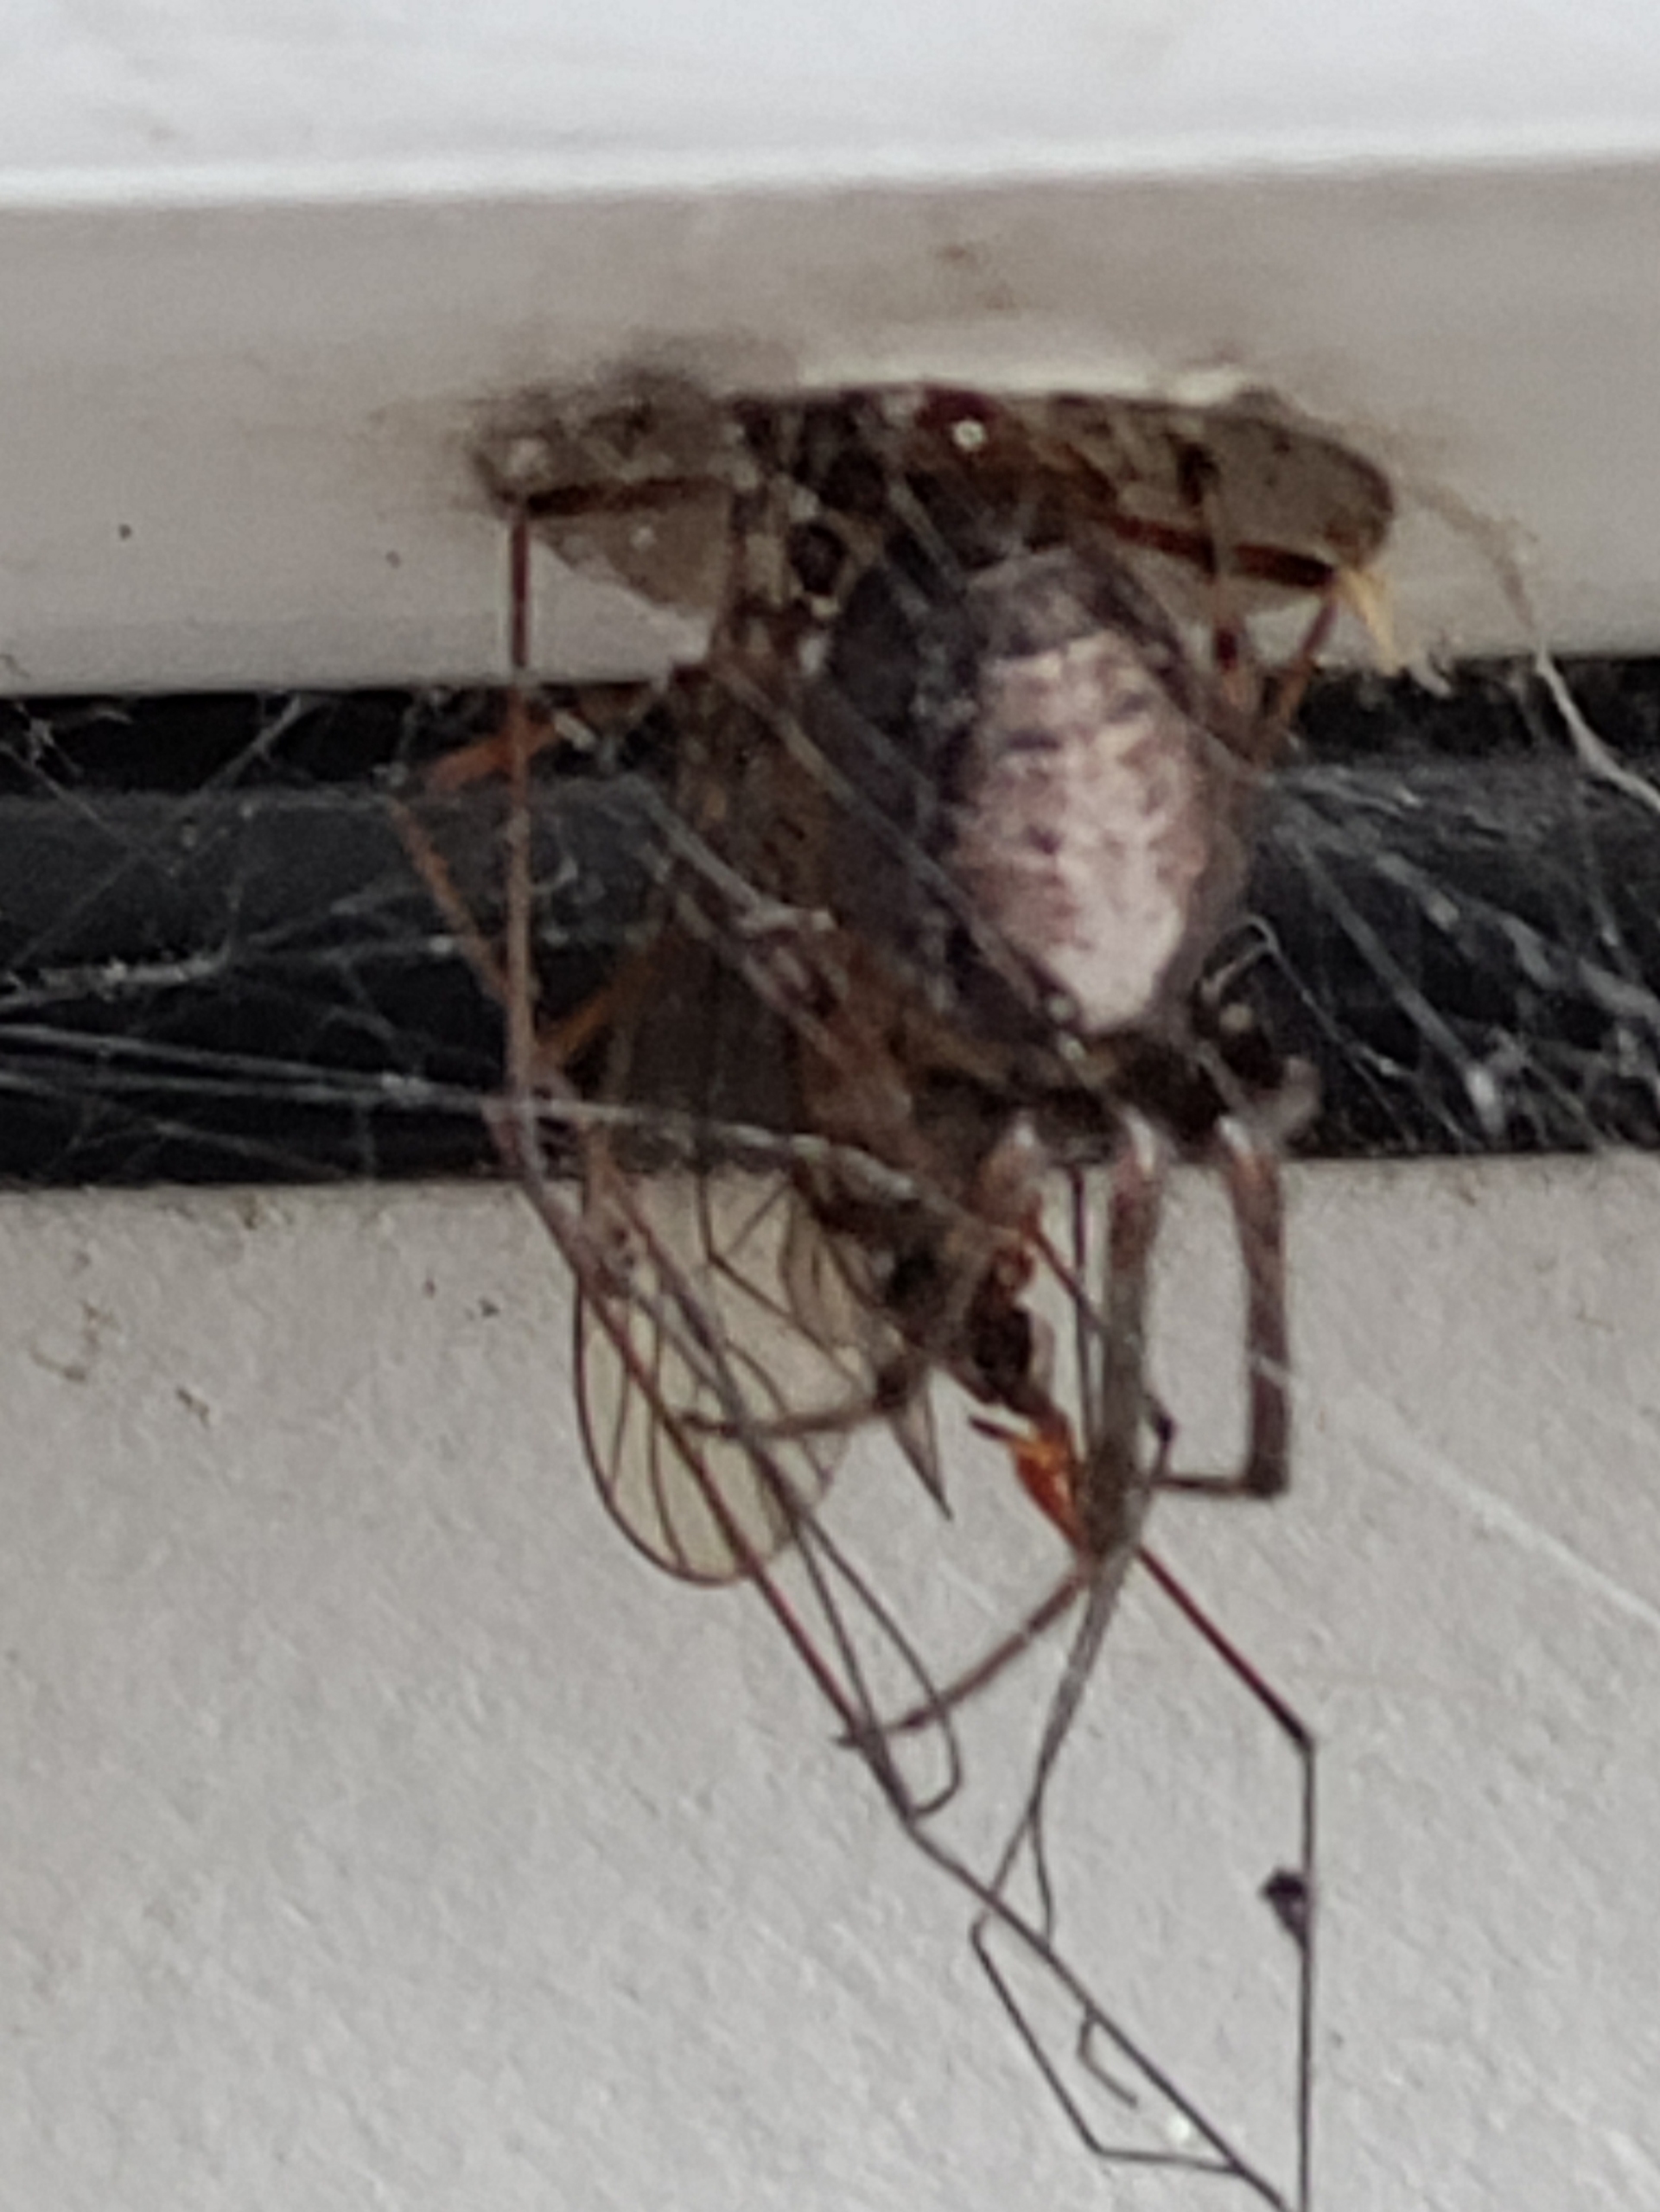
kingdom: Animalia
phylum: Arthropoda
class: Arachnida
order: Araneae
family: Araneidae
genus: Zygiella
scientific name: Zygiella x-notata
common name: Grå sektoredderkop
